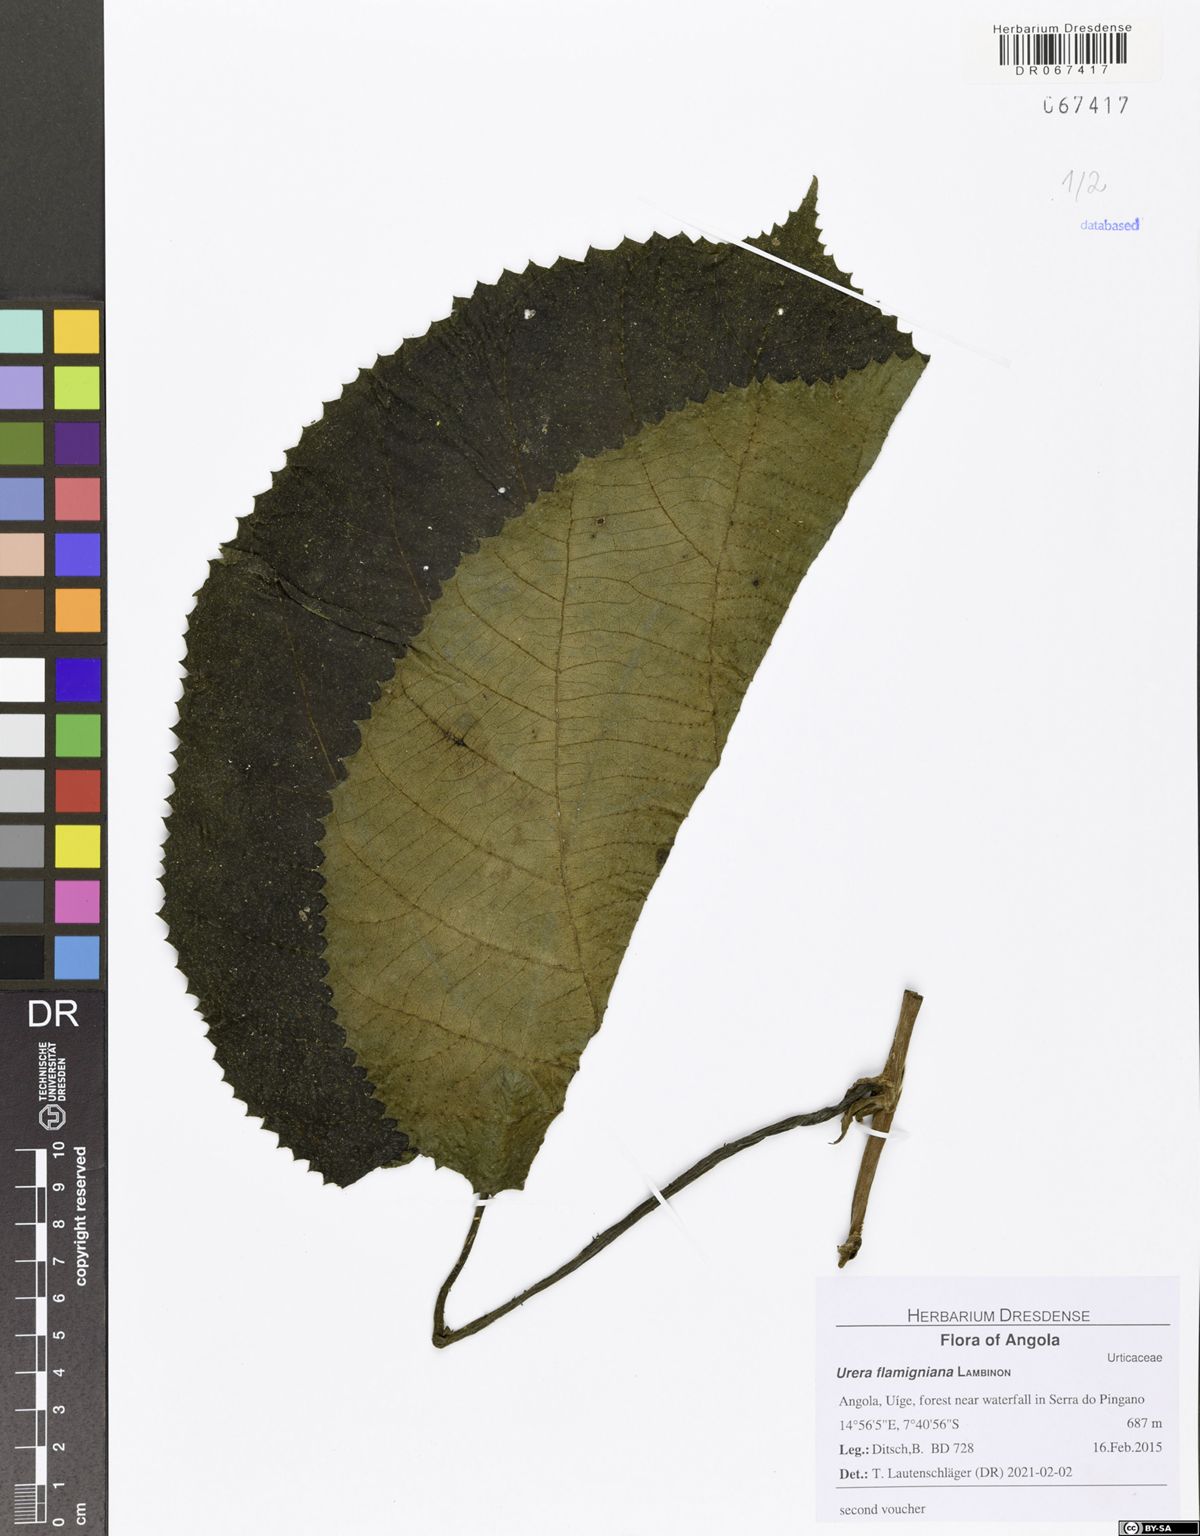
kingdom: Plantae
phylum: Tracheophyta
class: Magnoliopsida
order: Rosales
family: Urticaceae
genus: Scepocarpus
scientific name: Scepocarpus flamignianus
